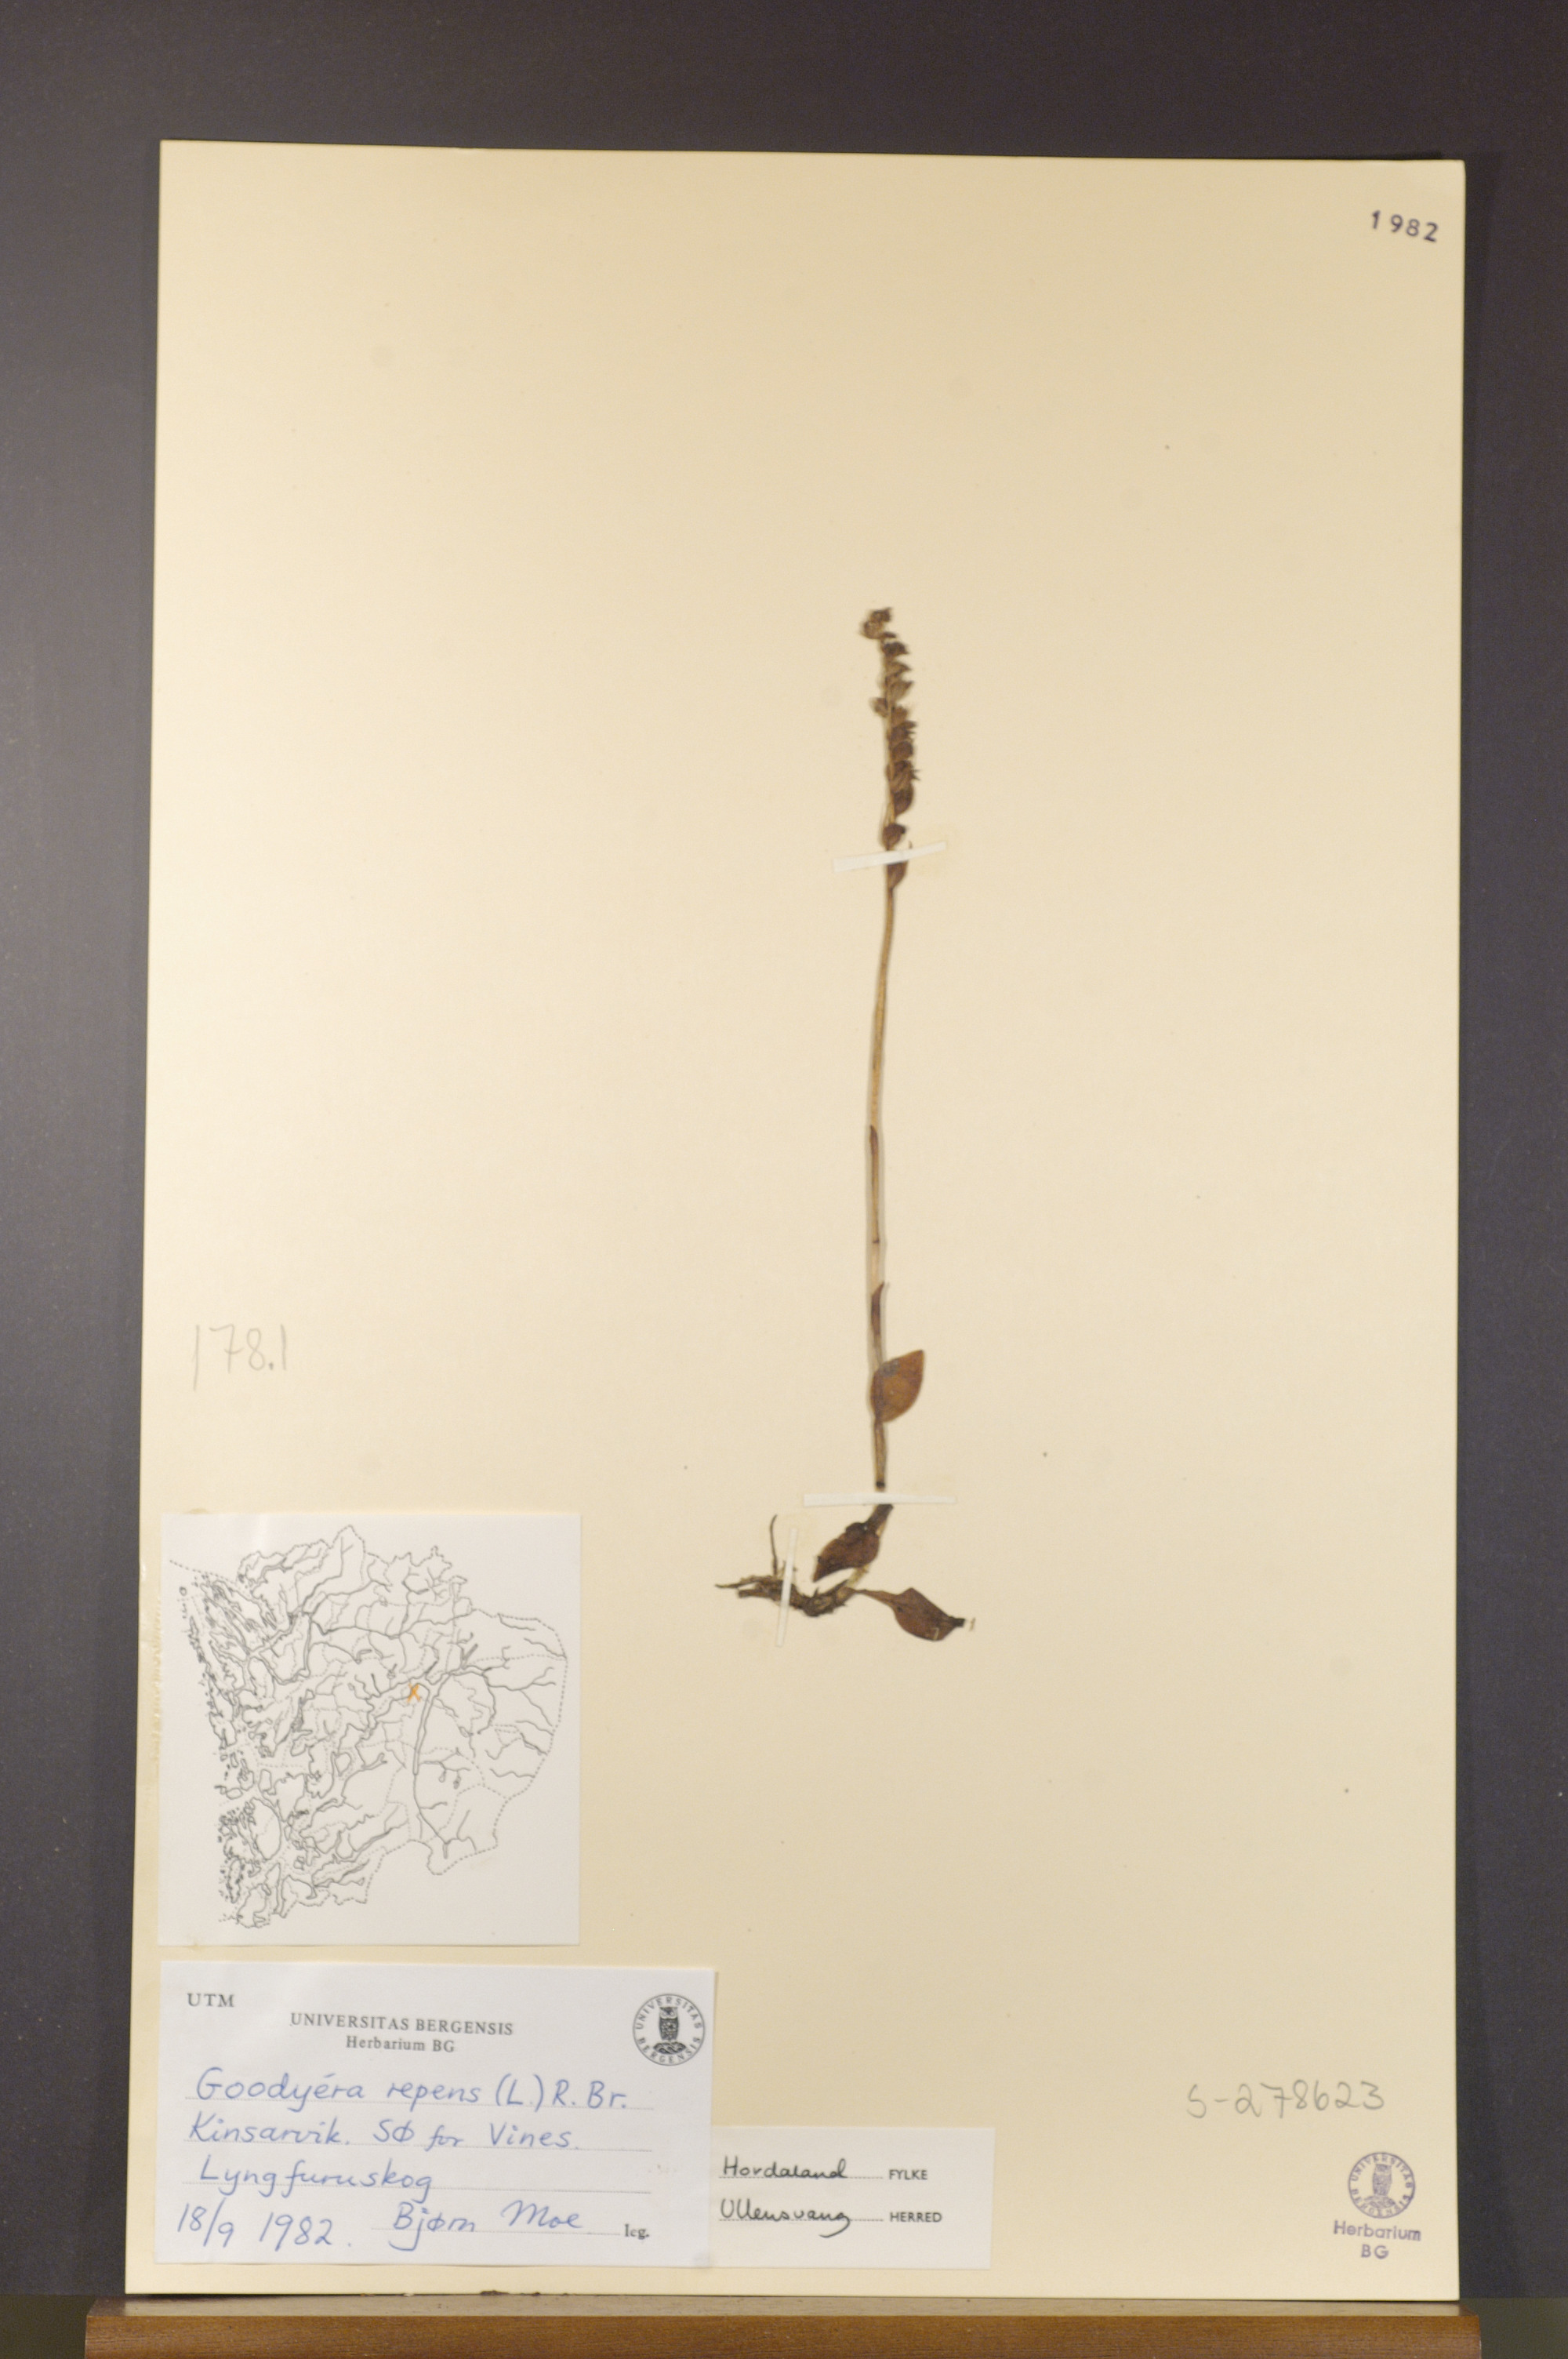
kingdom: Plantae
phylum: Tracheophyta
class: Liliopsida
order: Asparagales
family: Orchidaceae
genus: Goodyera
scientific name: Goodyera repens
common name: Creeping lady's-tresses
